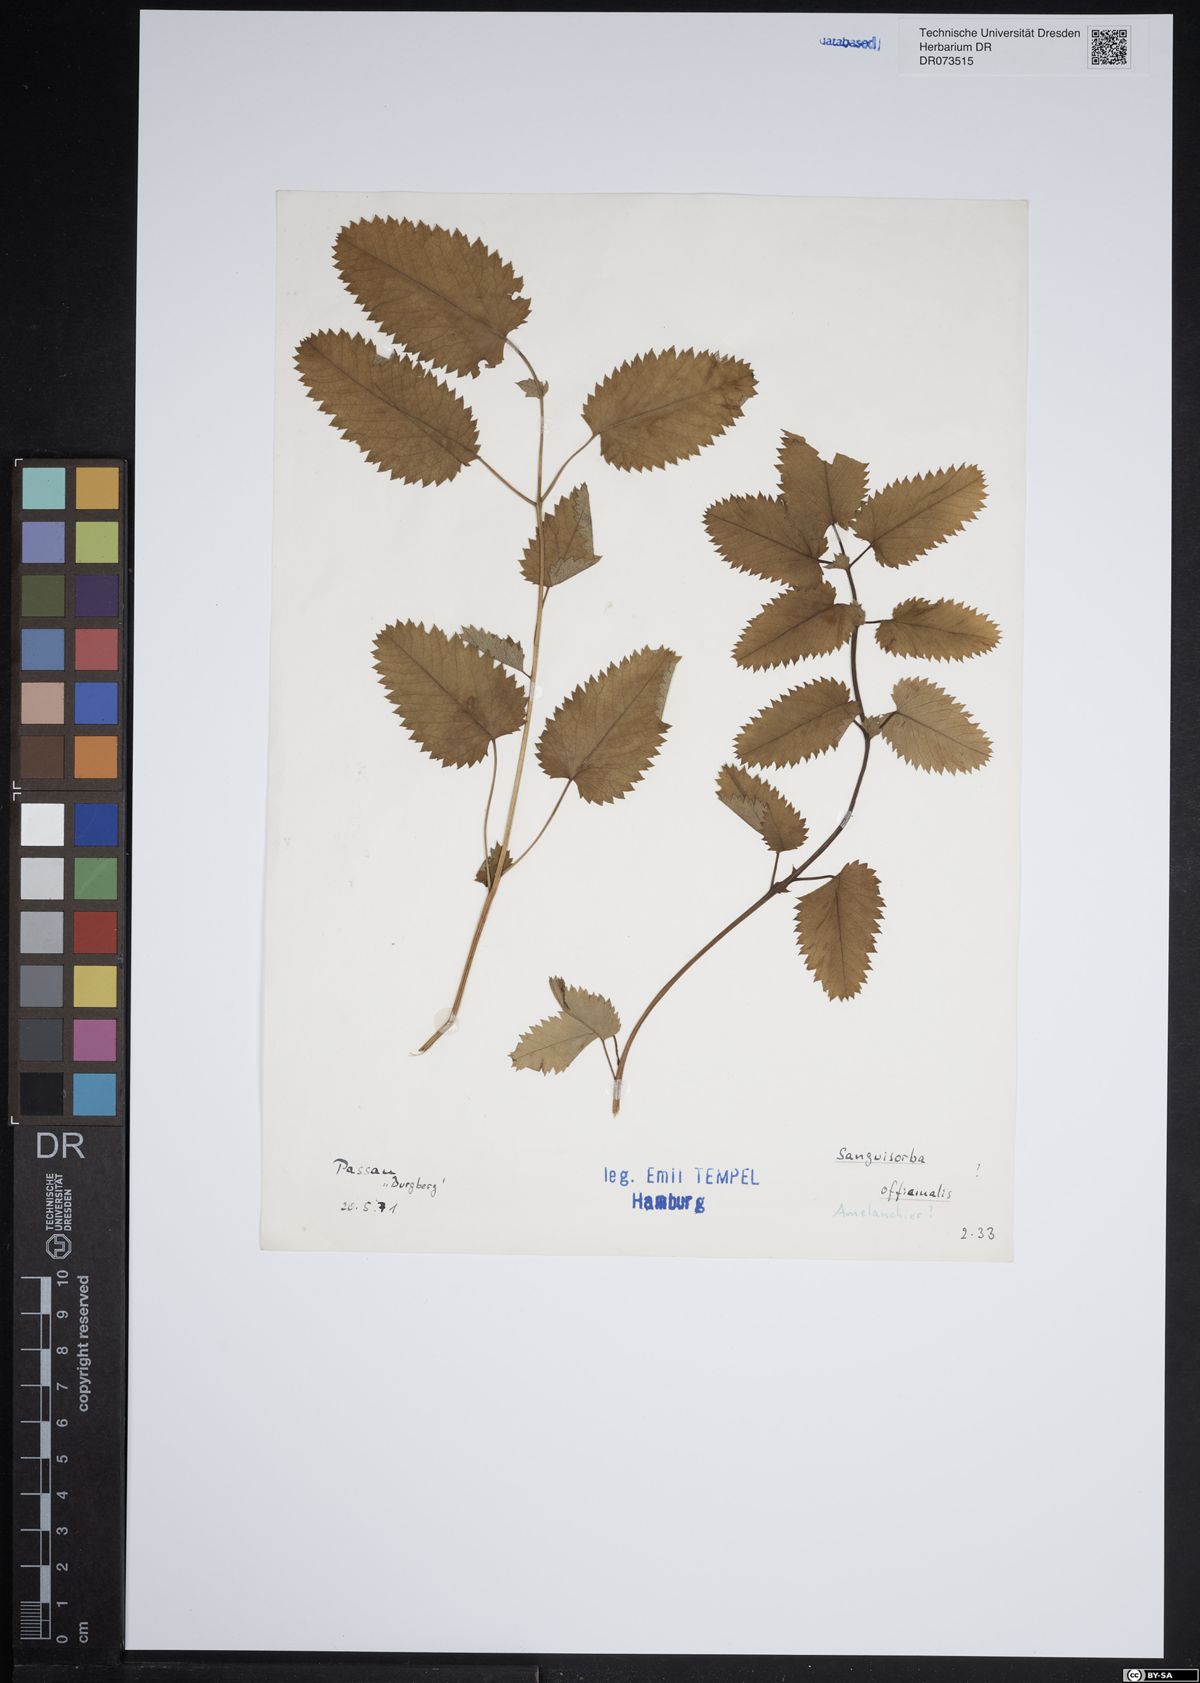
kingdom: Plantae
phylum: Tracheophyta
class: Magnoliopsida
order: Rosales
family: Rosaceae
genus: Sanguisorba
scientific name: Sanguisorba officinalis
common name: Great burnet
